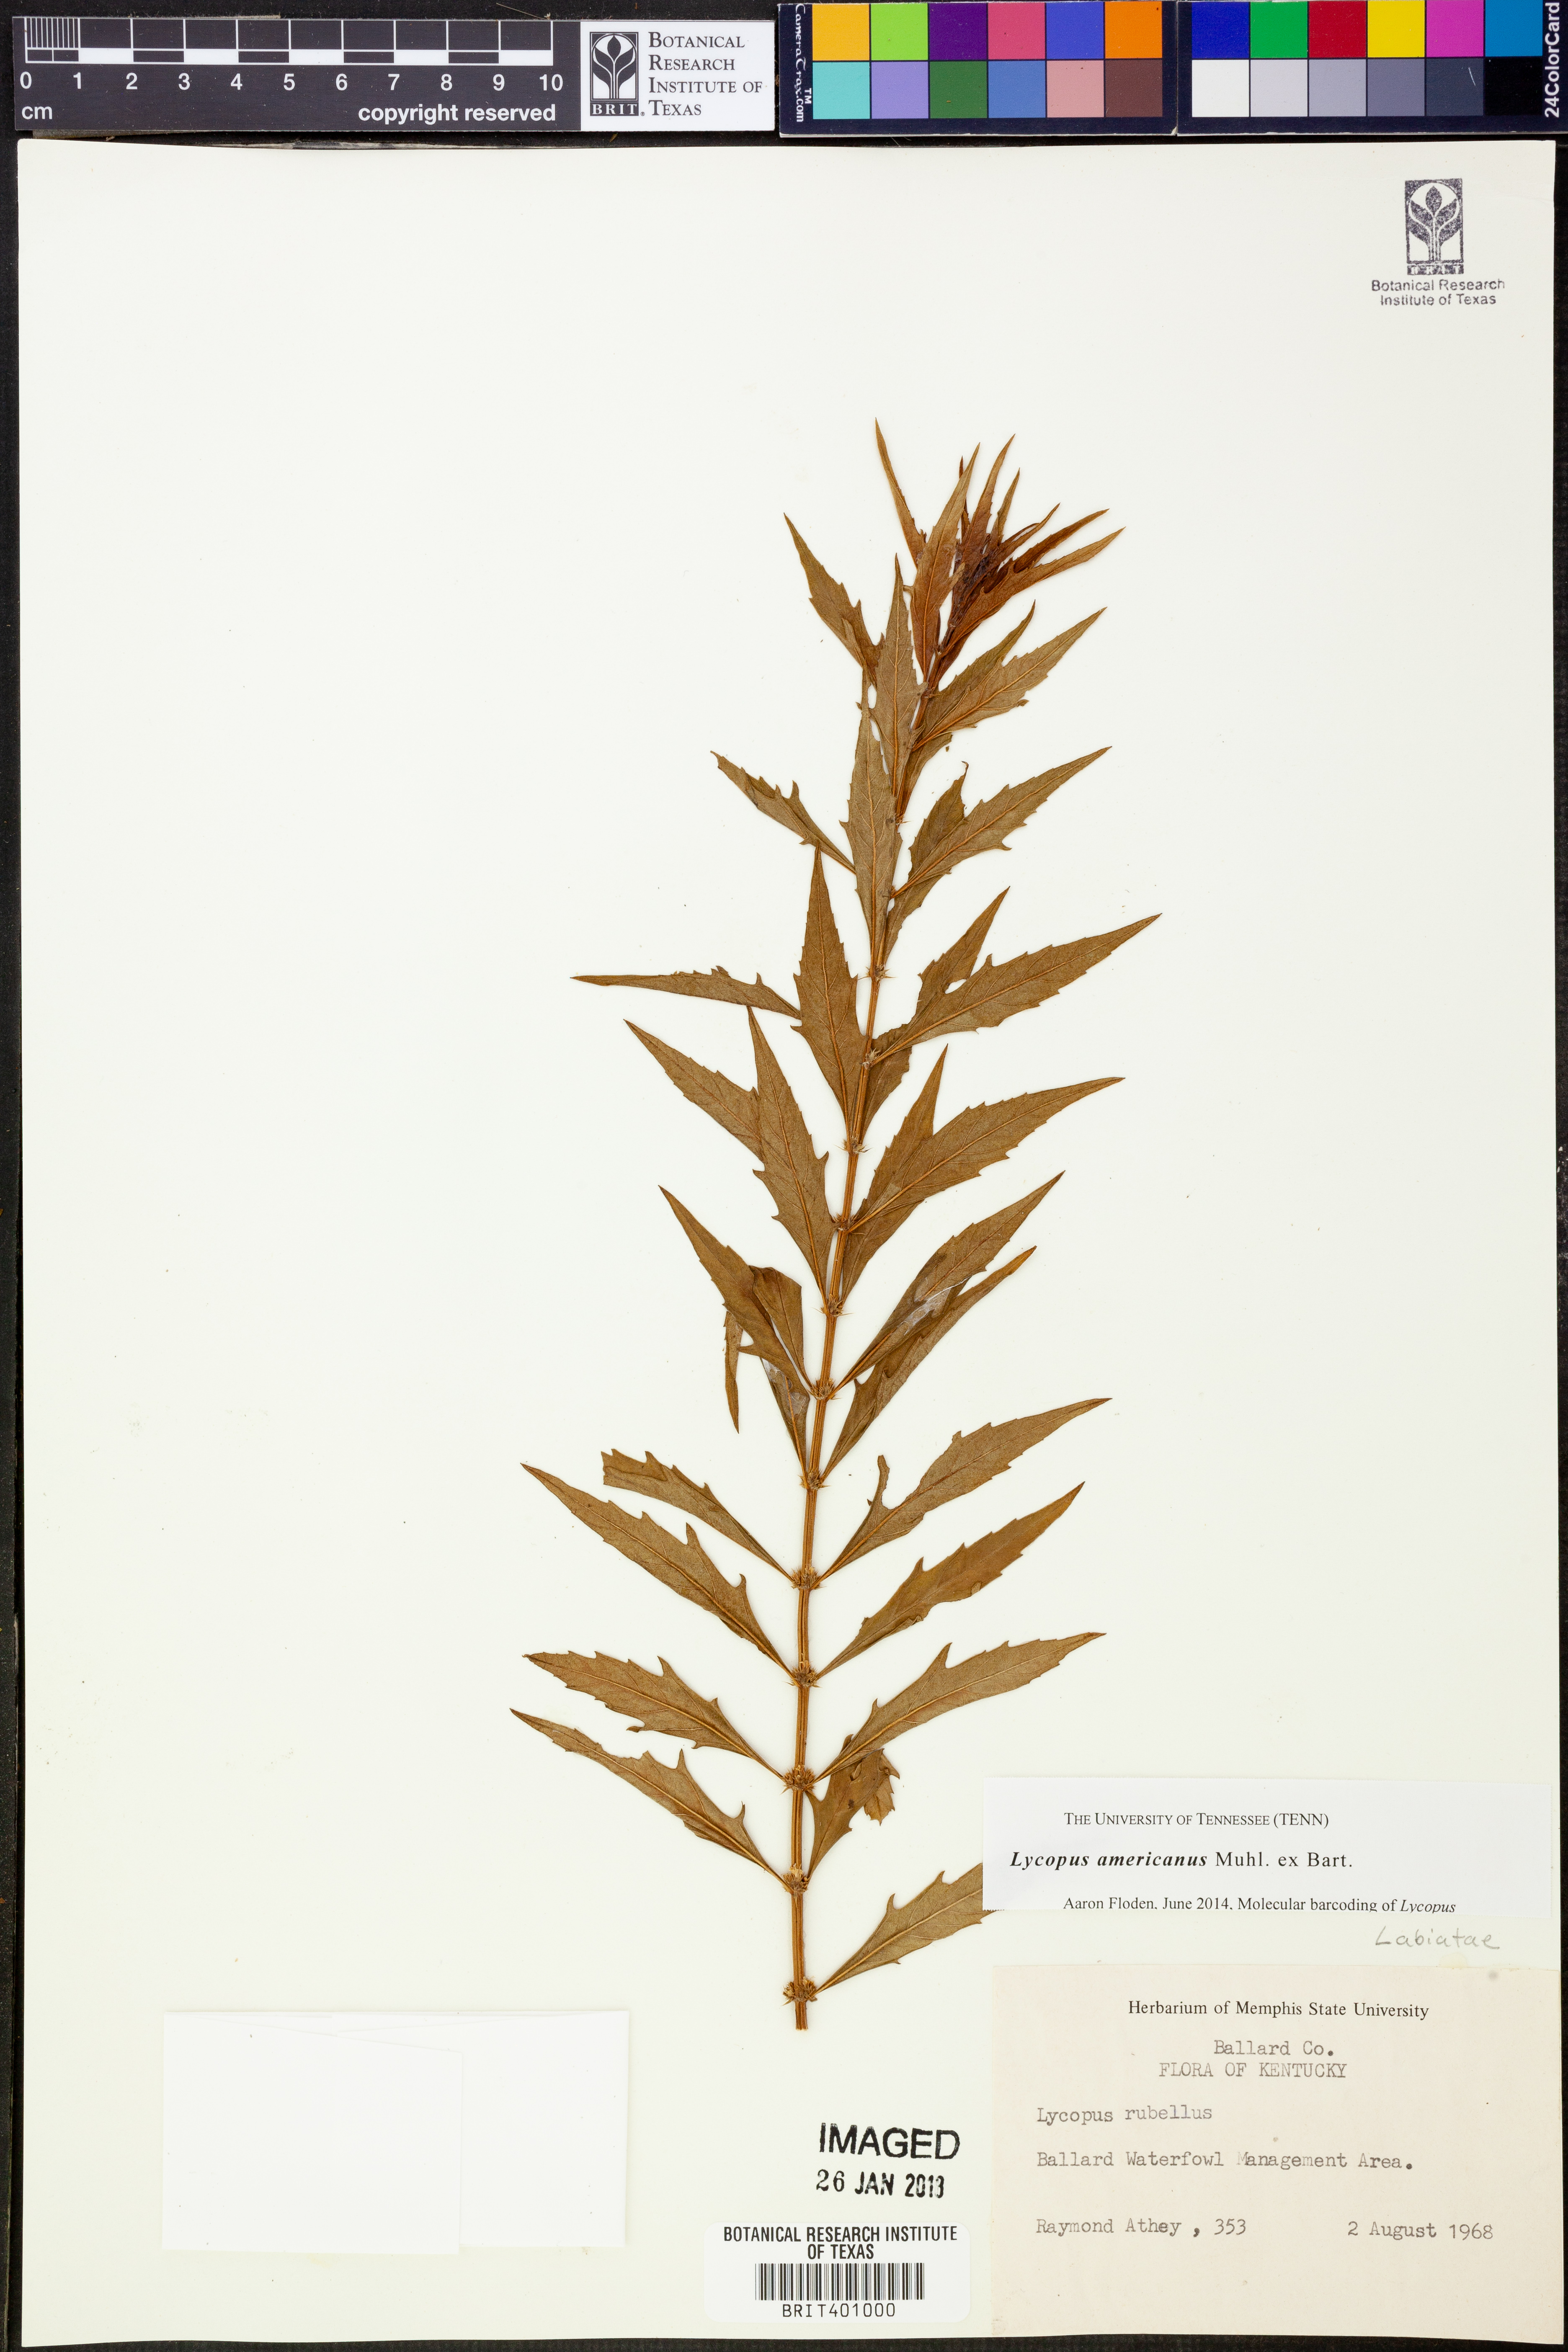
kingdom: Plantae
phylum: Tracheophyta
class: Magnoliopsida
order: Lamiales
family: Lamiaceae
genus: Lycopus
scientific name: Lycopus americanus
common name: American bugleweed
